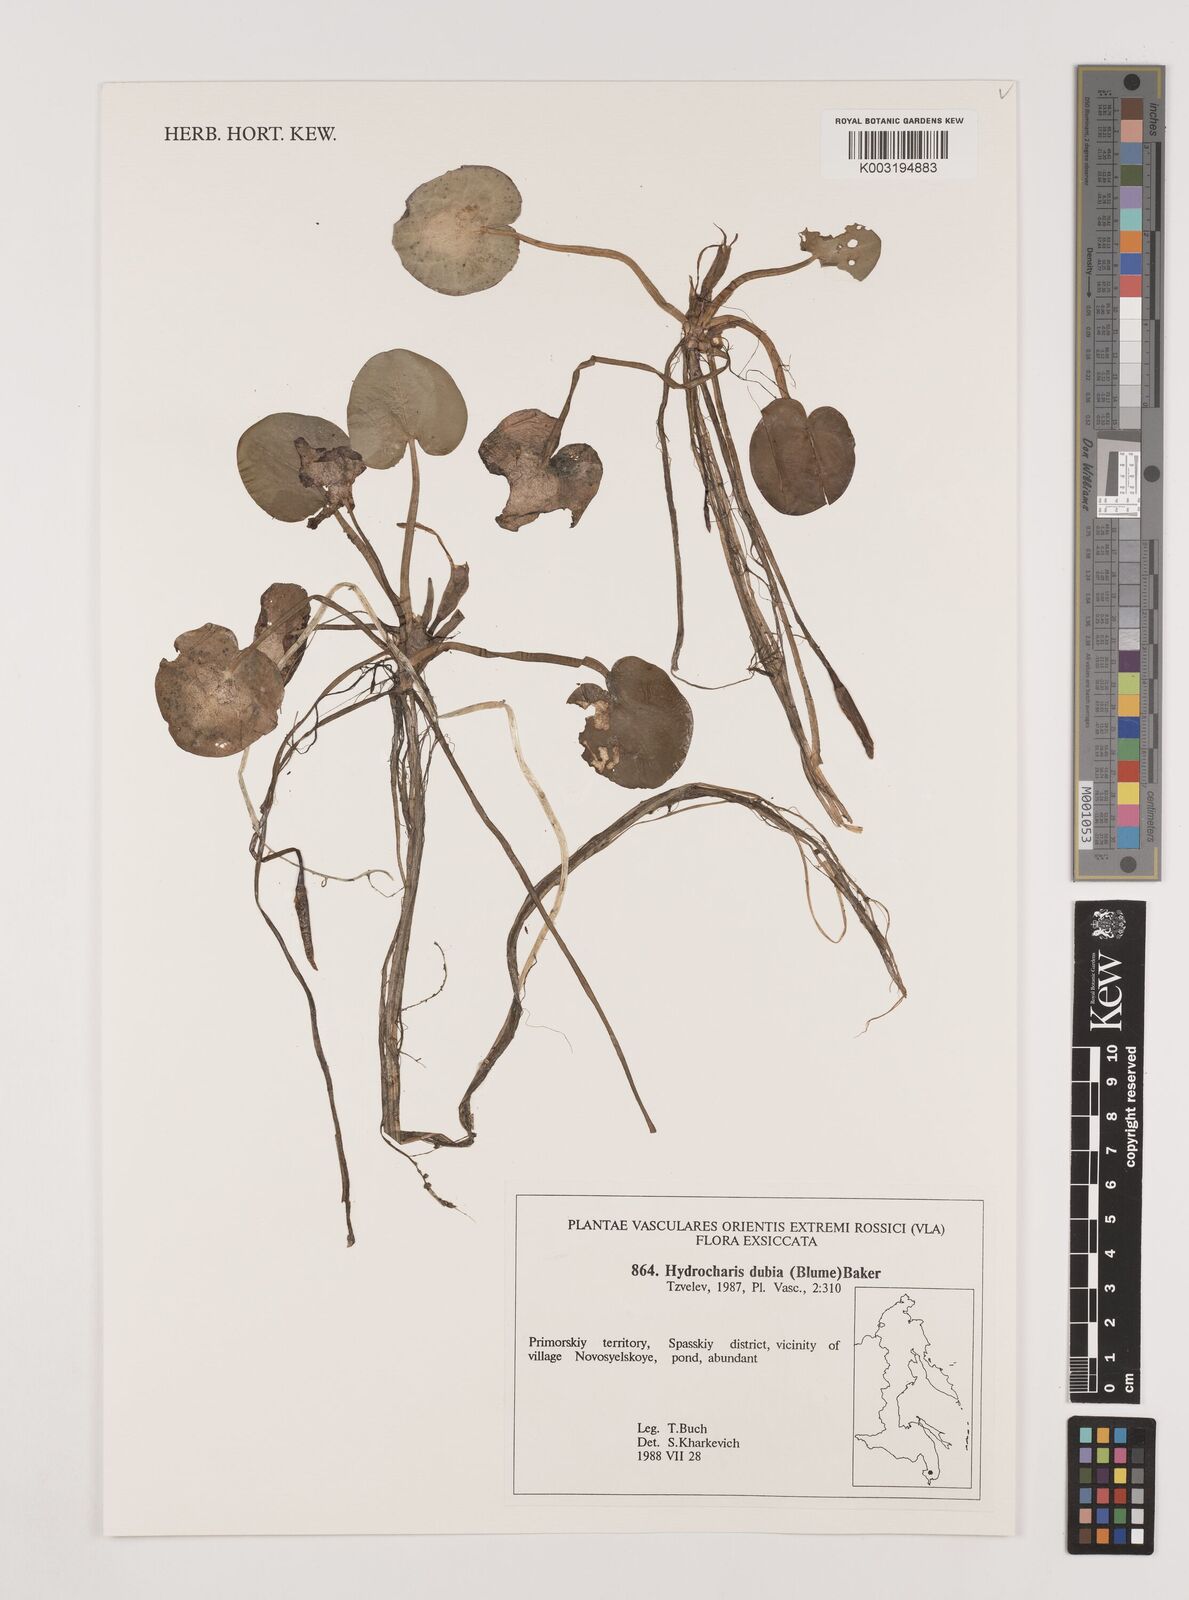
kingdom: Plantae
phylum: Tracheophyta
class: Liliopsida
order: Alismatales
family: Hydrocharitaceae
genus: Hydrocharis
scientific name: Hydrocharis dubia
